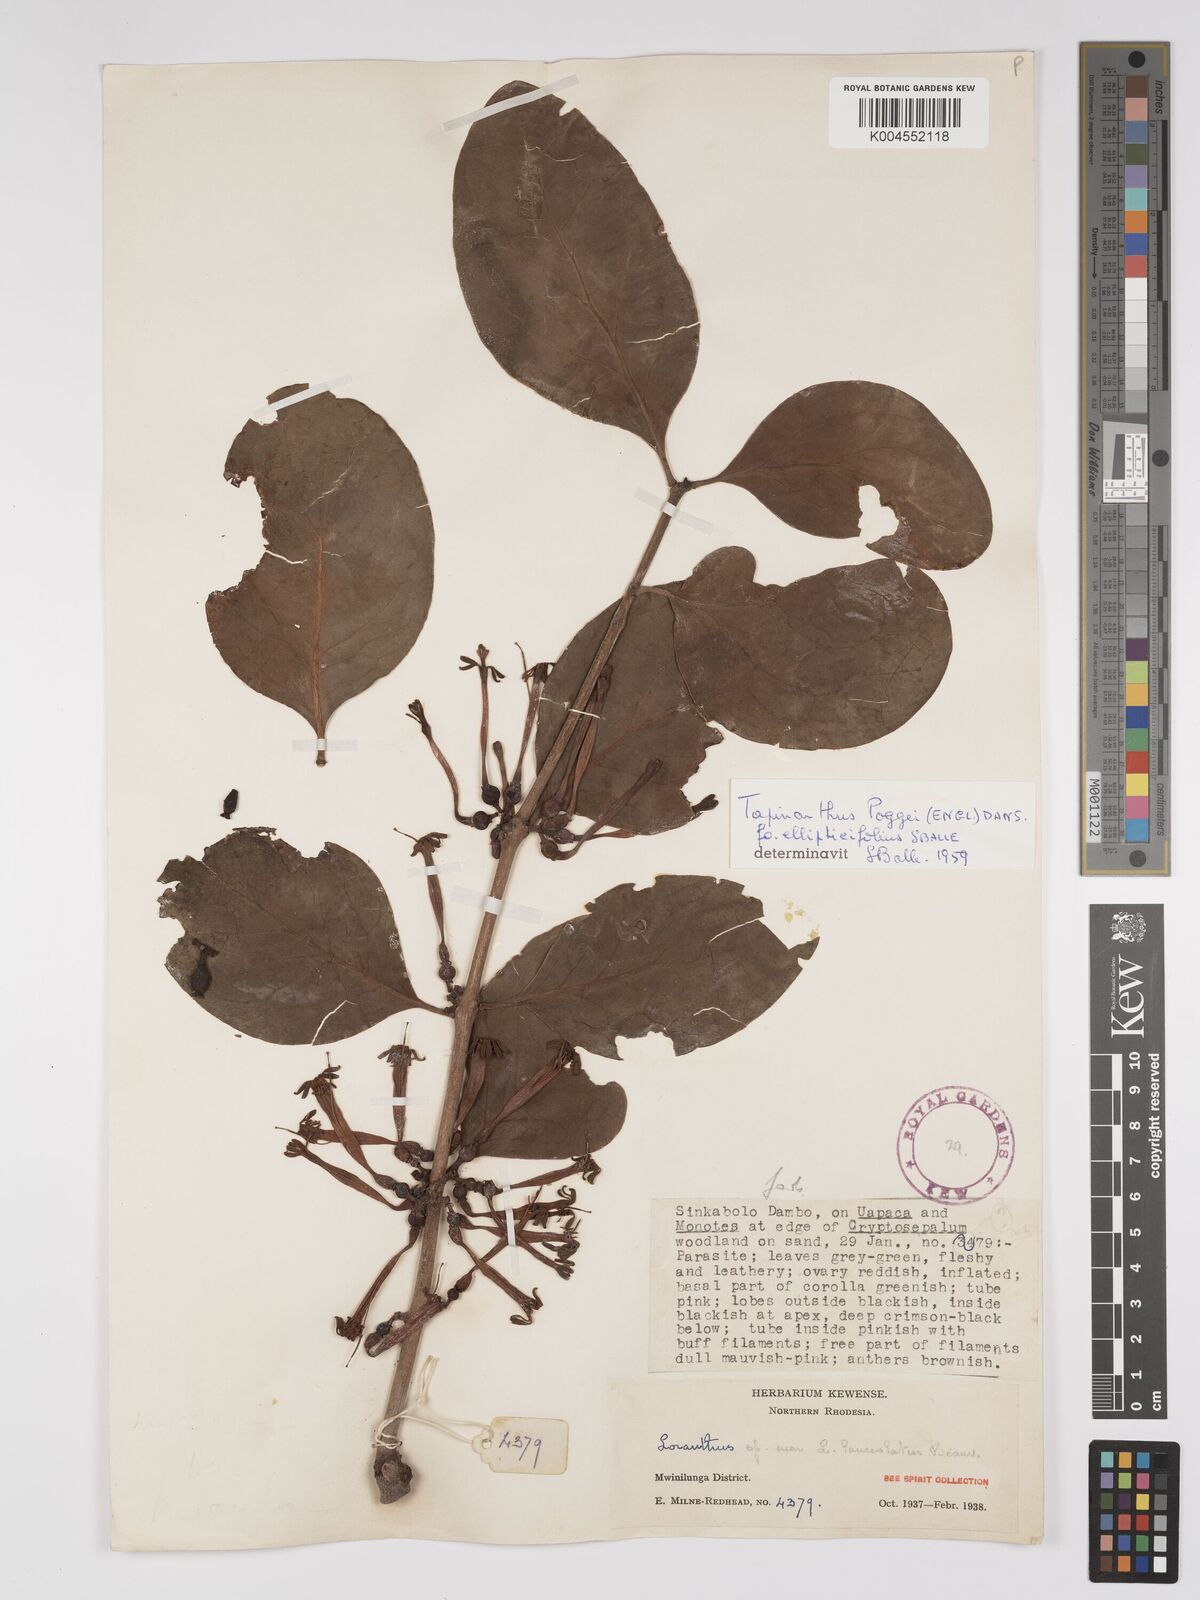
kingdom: Plantae
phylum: Tracheophyta
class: Magnoliopsida
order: Santalales
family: Loranthaceae
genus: Tapinanthus
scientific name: Tapinanthus forbesii
